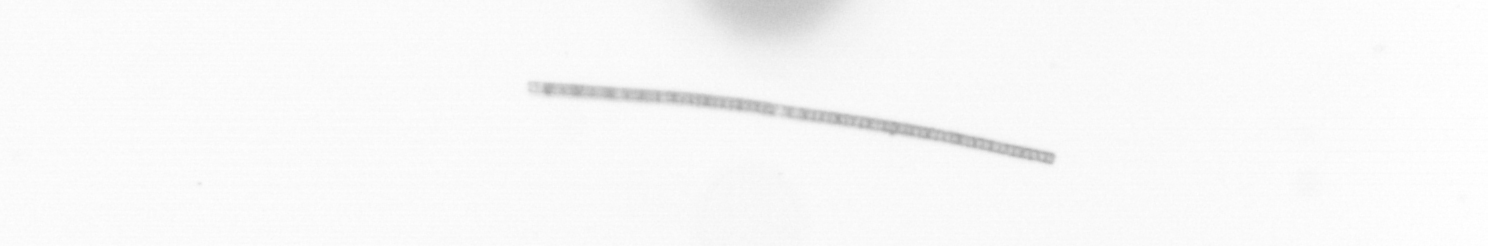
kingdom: Chromista
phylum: Ochrophyta
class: Bacillariophyceae
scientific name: Bacillariophyceae
